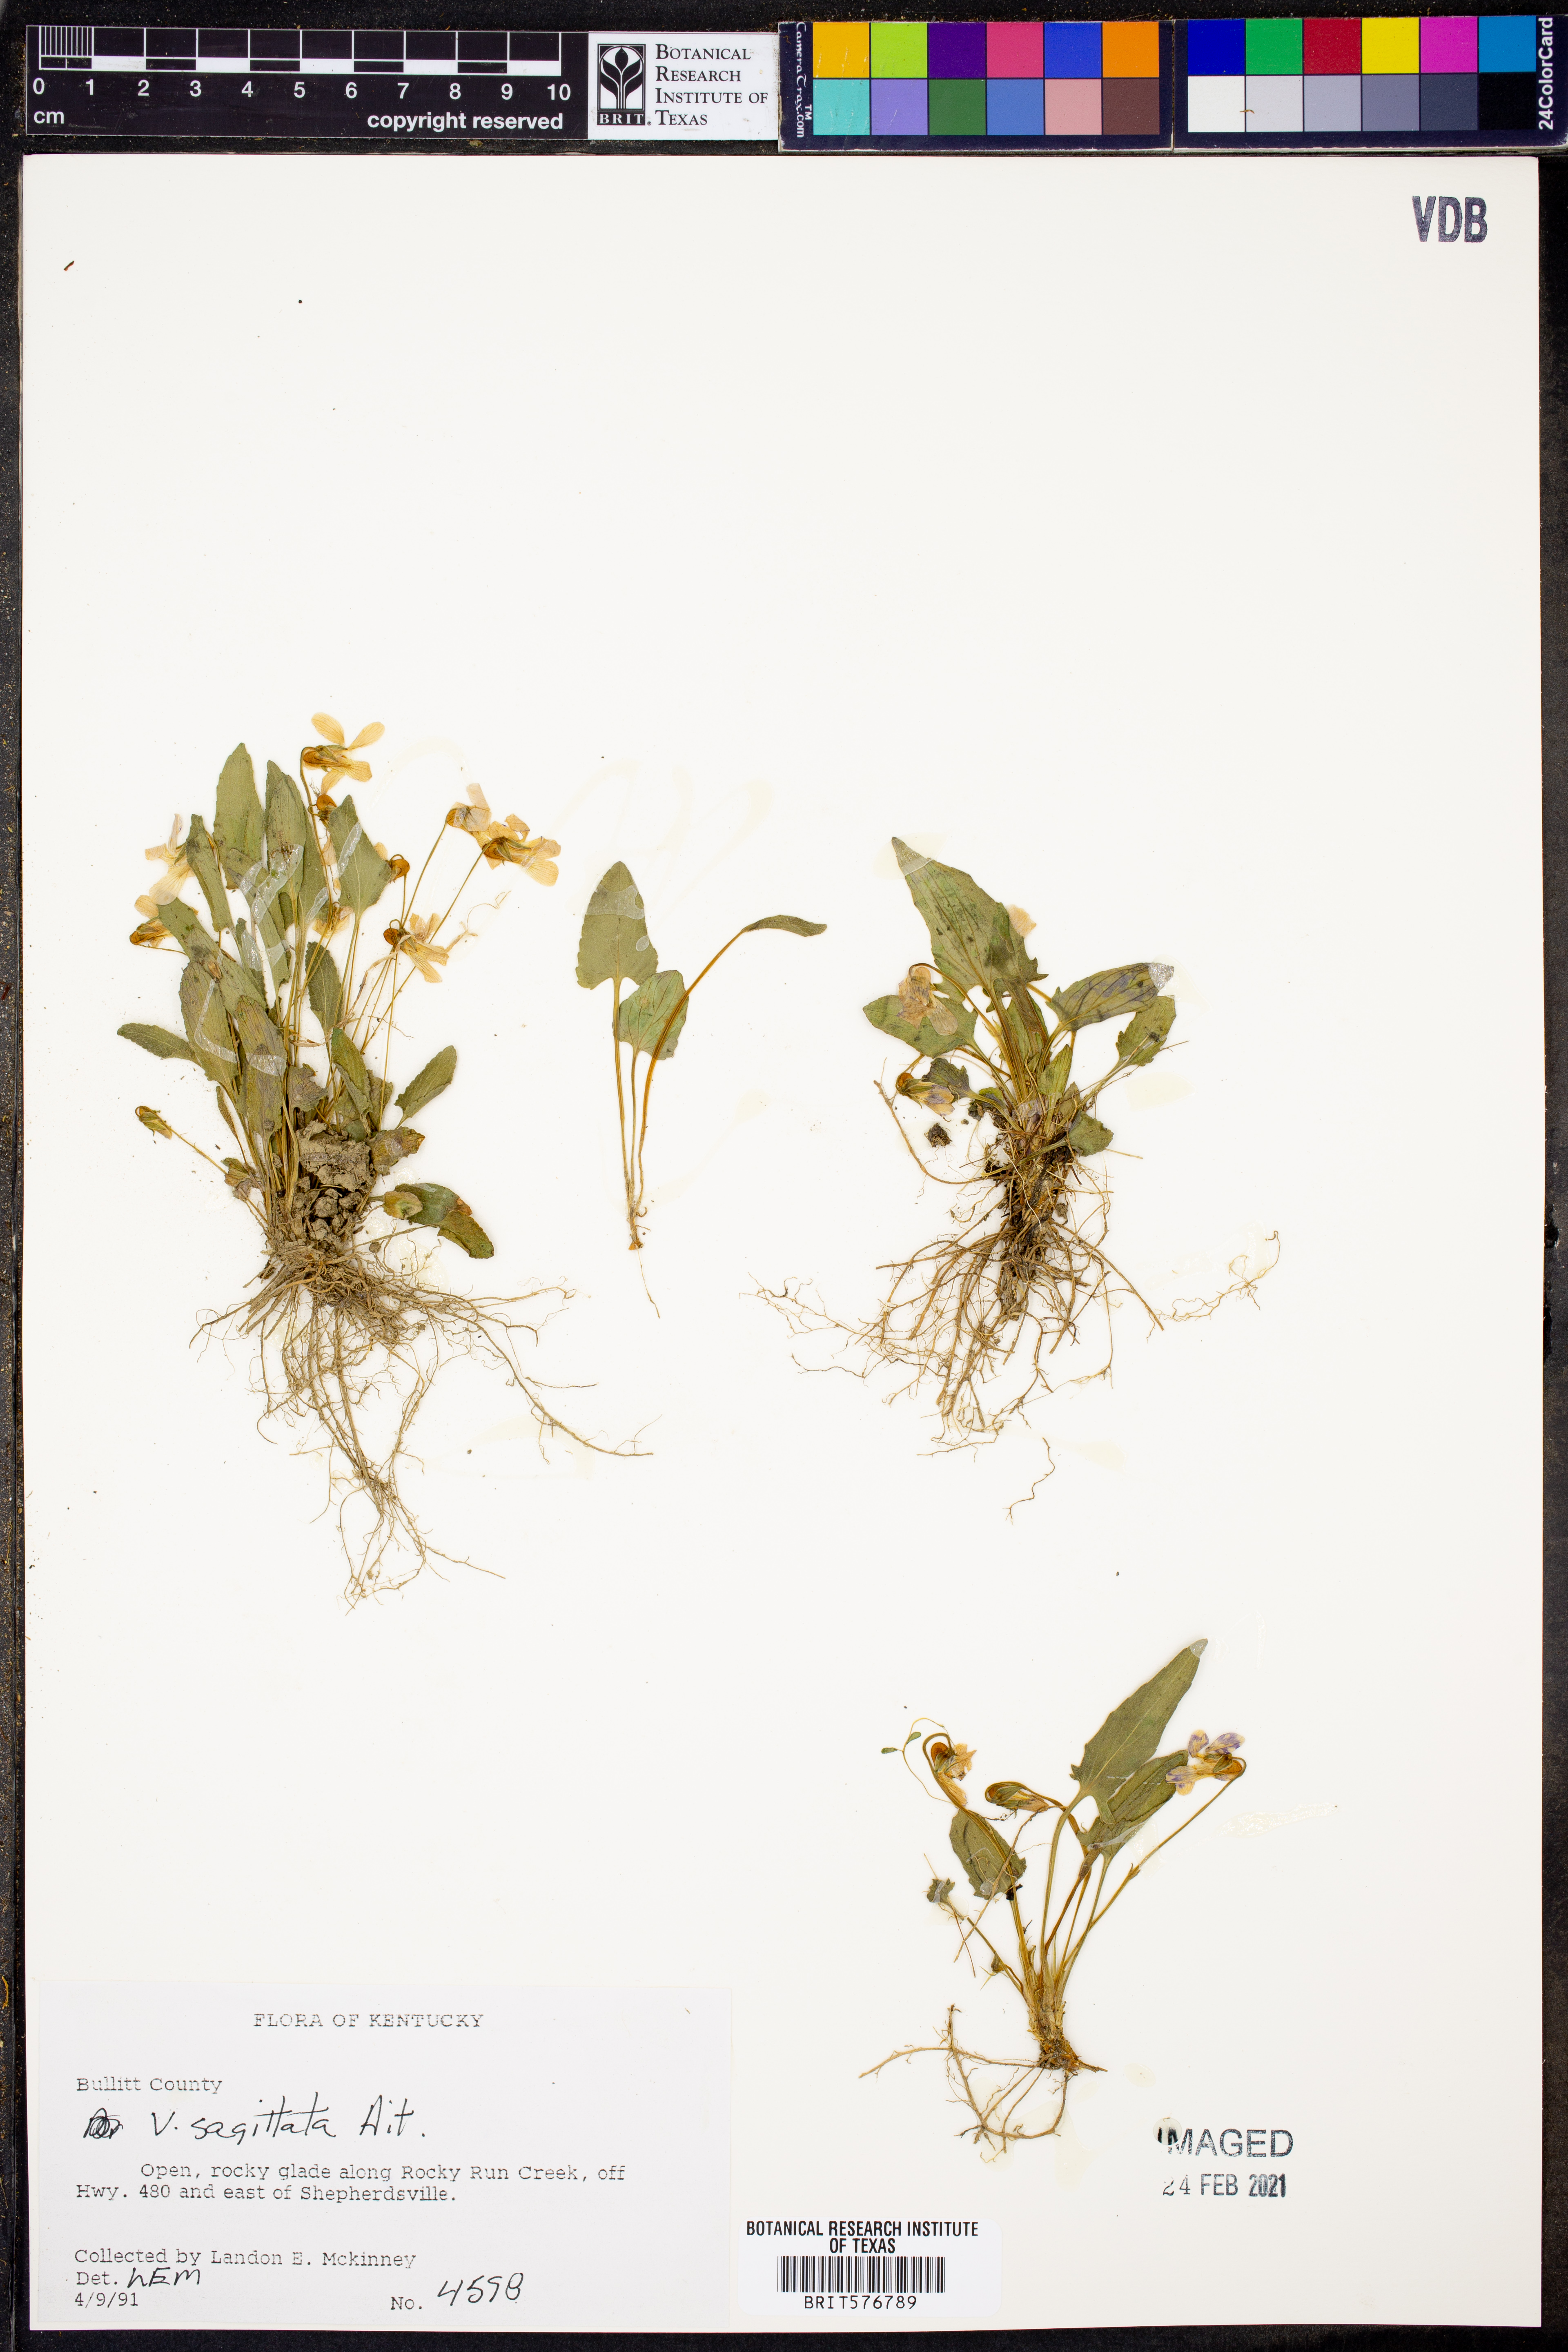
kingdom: Plantae
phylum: Tracheophyta
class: Magnoliopsida
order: Malpighiales
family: Violaceae
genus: Viola
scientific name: Viola sagittata
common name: Arrowhead violet
